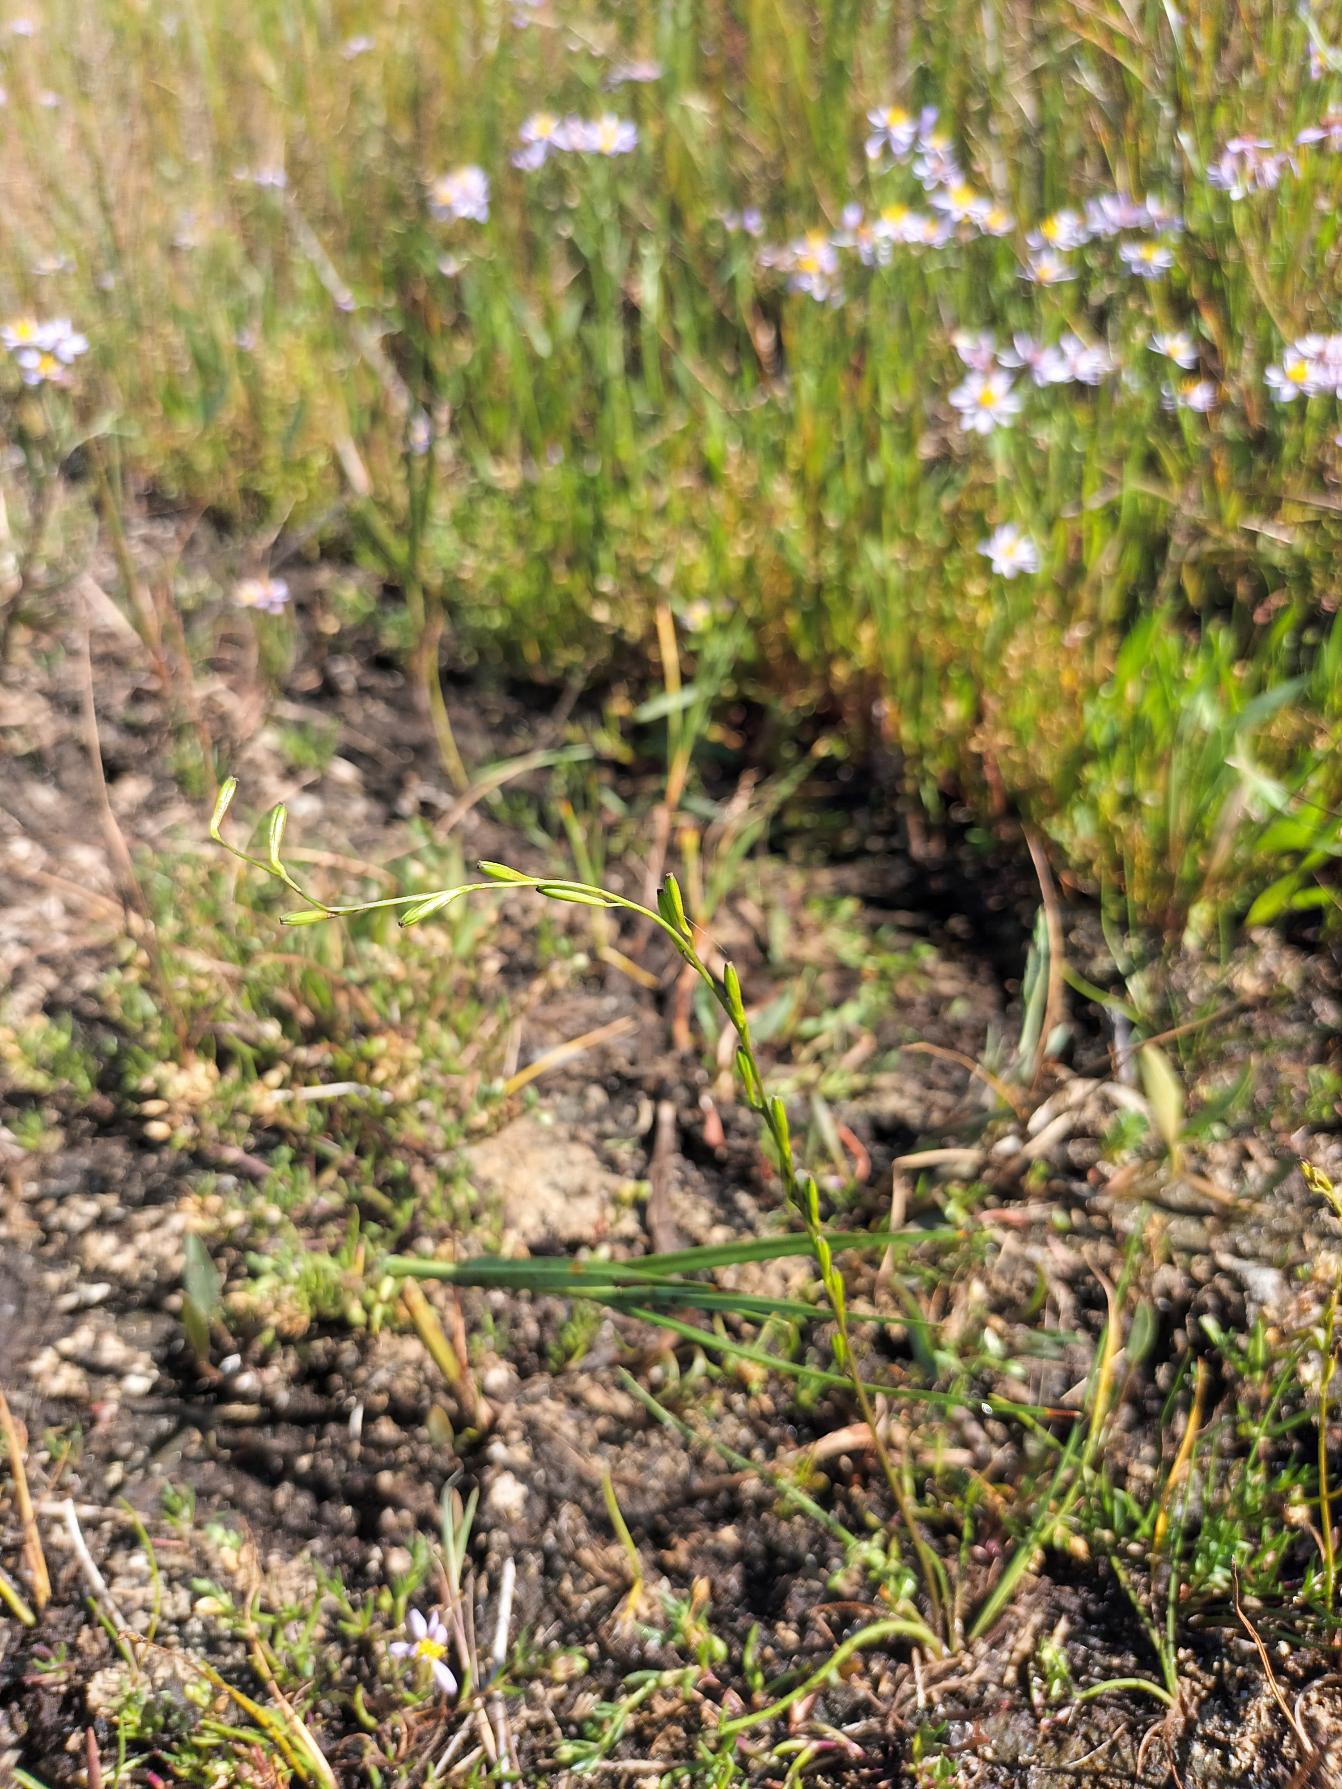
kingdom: Plantae
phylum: Tracheophyta
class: Liliopsida
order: Alismatales
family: Juncaginaceae
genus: Triglochin
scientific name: Triglochin palustris
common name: Kær-trehage
